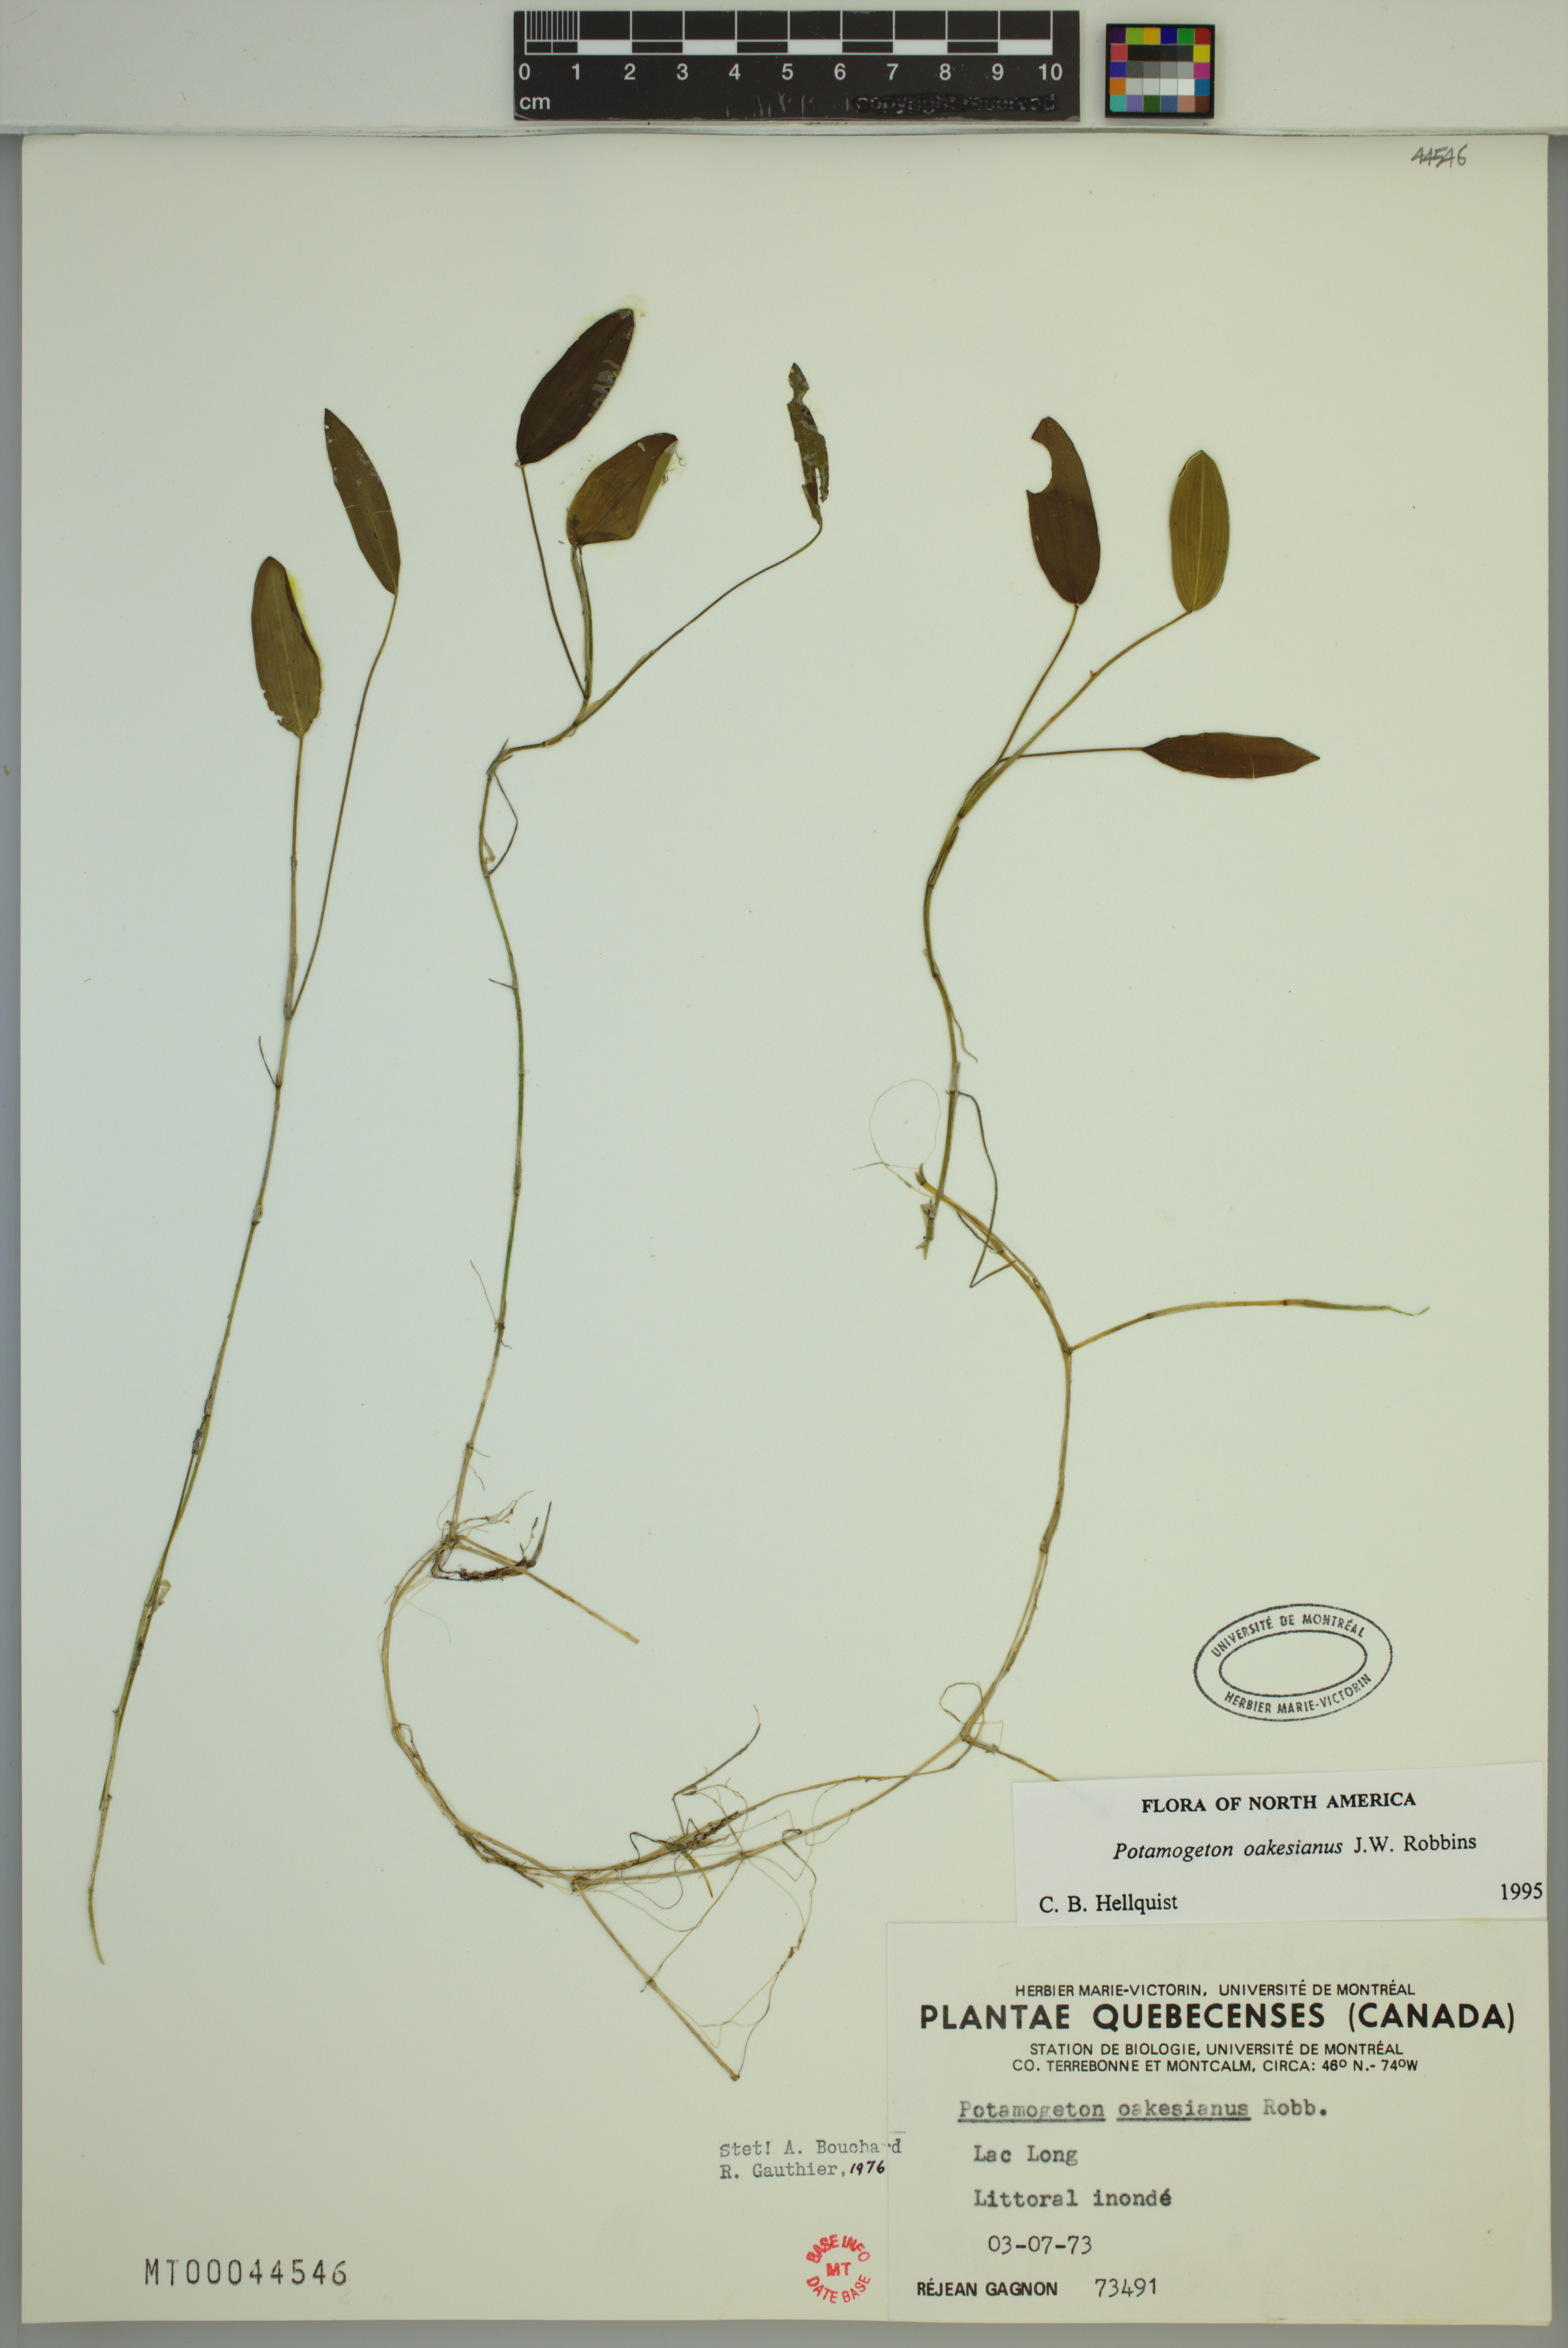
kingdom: Plantae
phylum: Tracheophyta
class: Liliopsida
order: Alismatales
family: Potamogetonaceae
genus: Potamogeton
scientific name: Potamogeton oakesianus
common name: Oakes' pondweed
